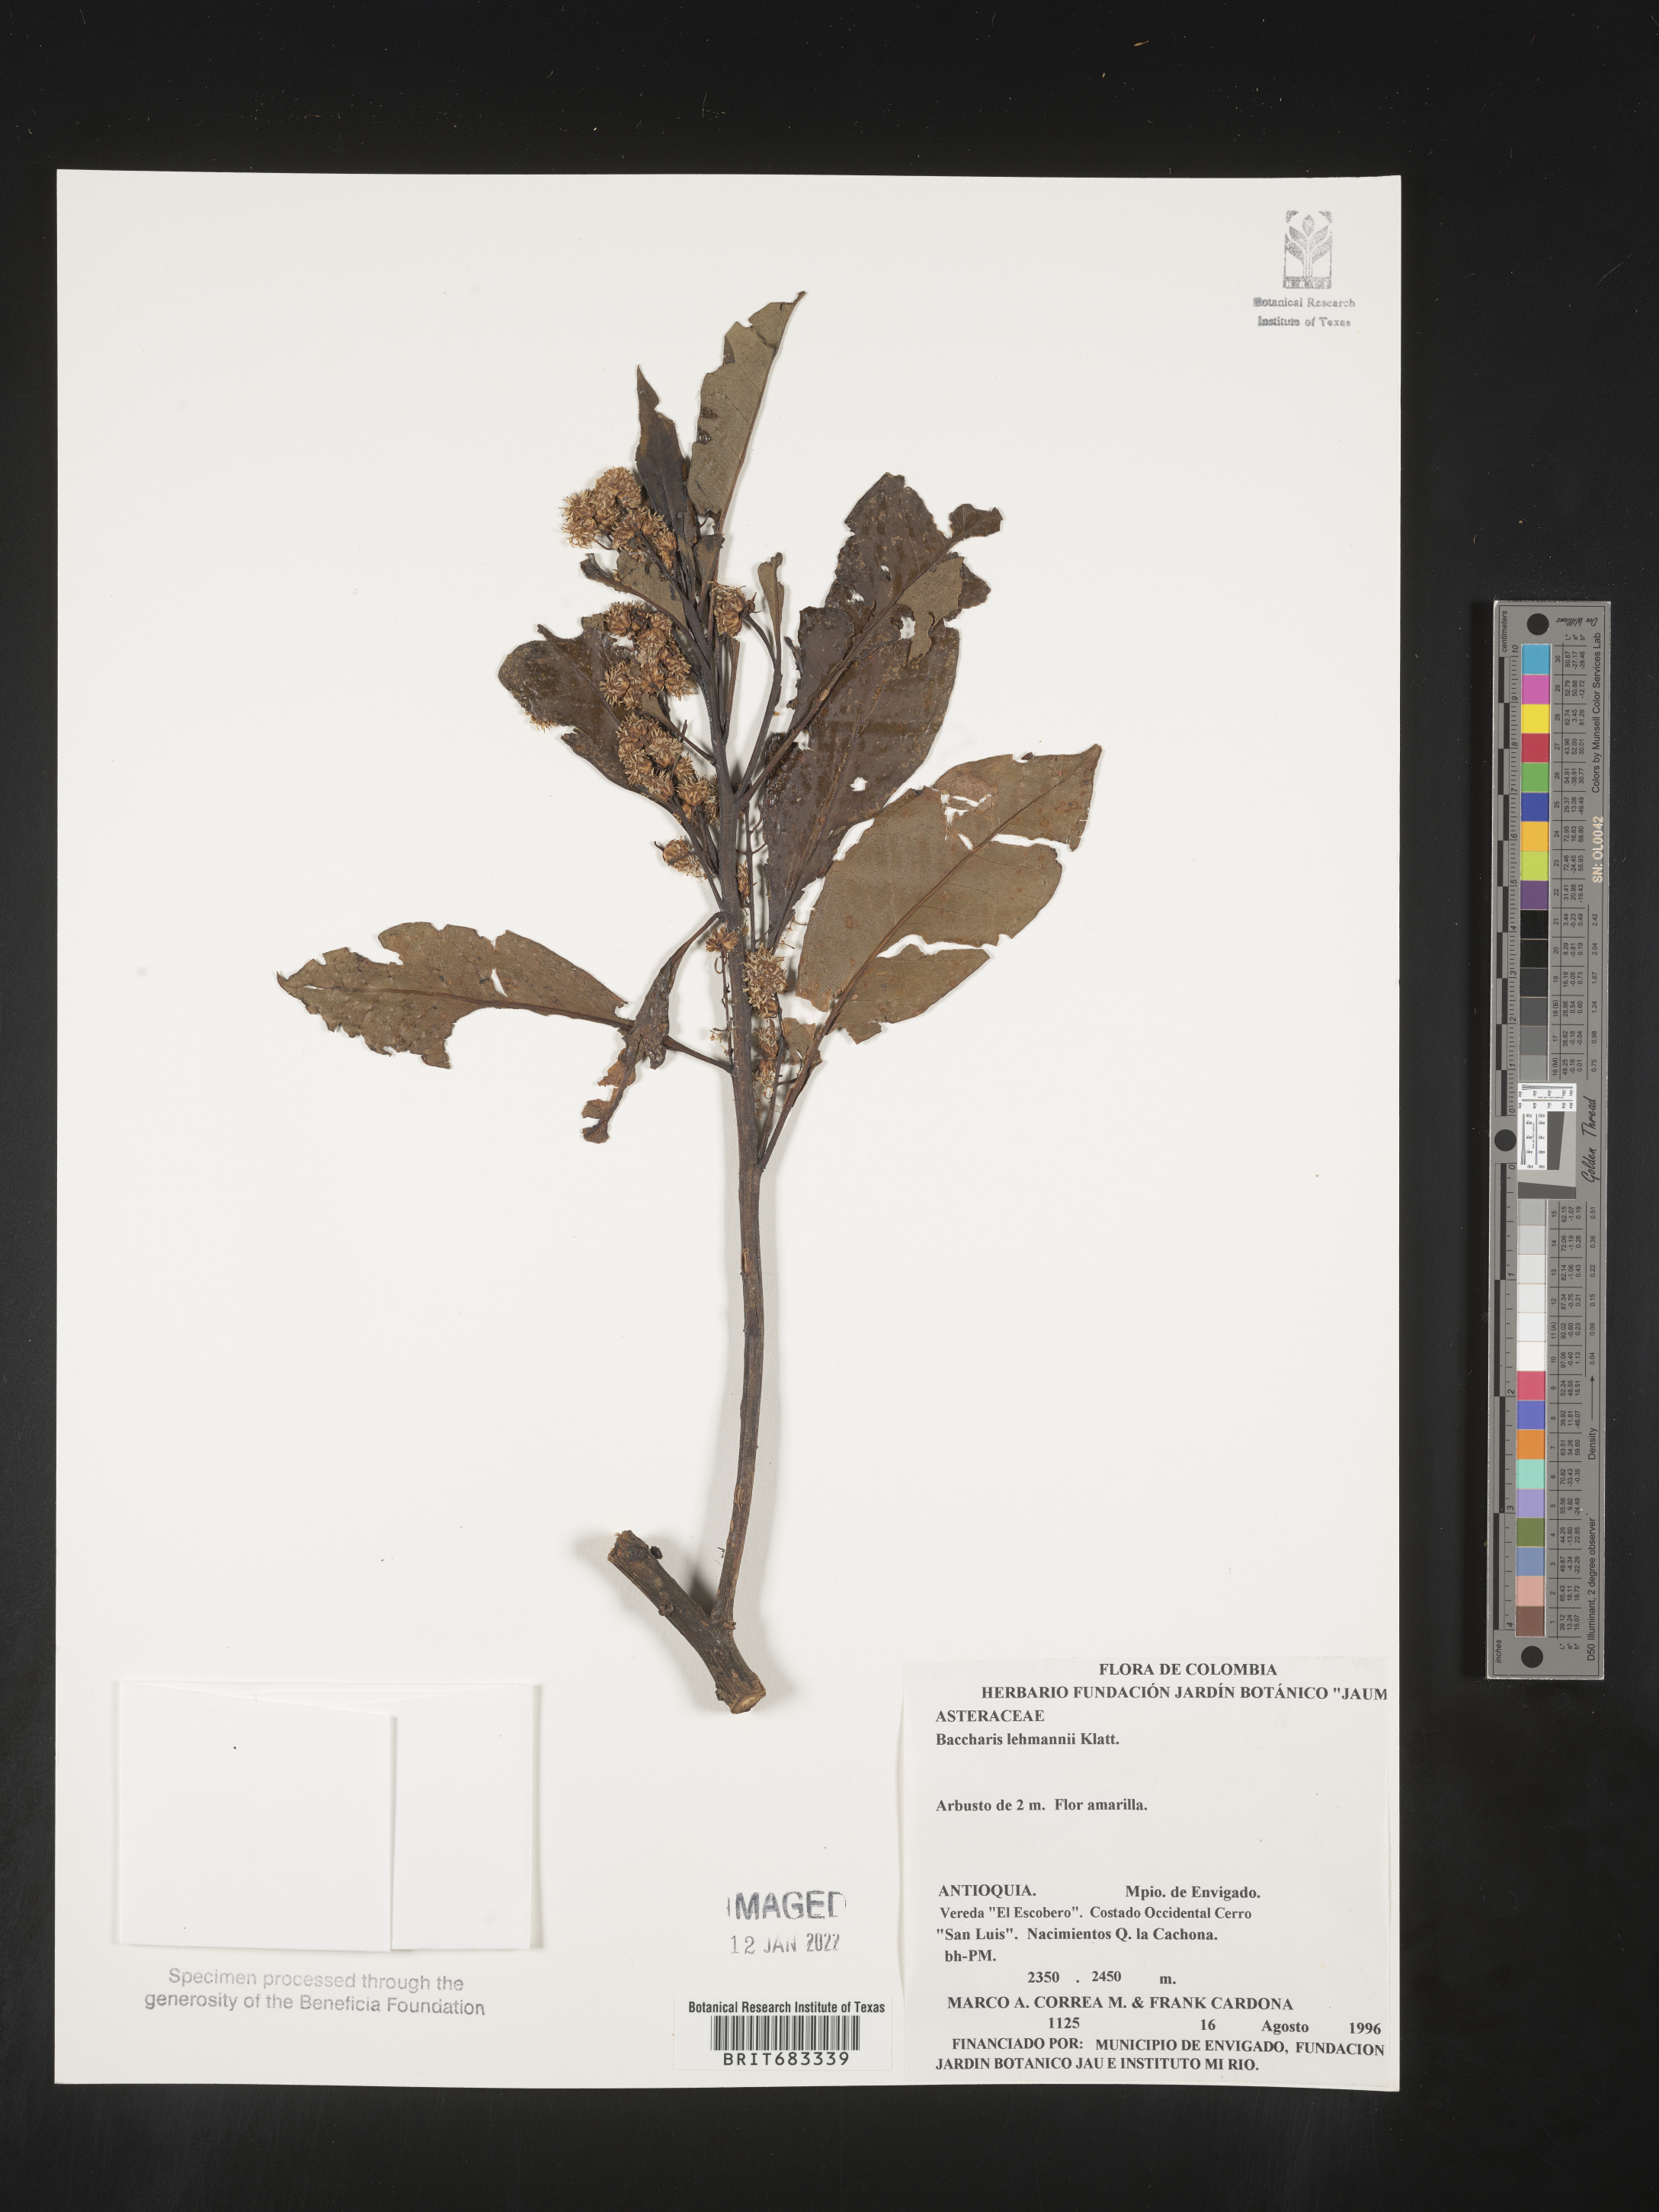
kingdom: Plantae
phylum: Tracheophyta
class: Magnoliopsida
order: Asterales
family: Asteraceae
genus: Baccharis
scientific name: Baccharis
